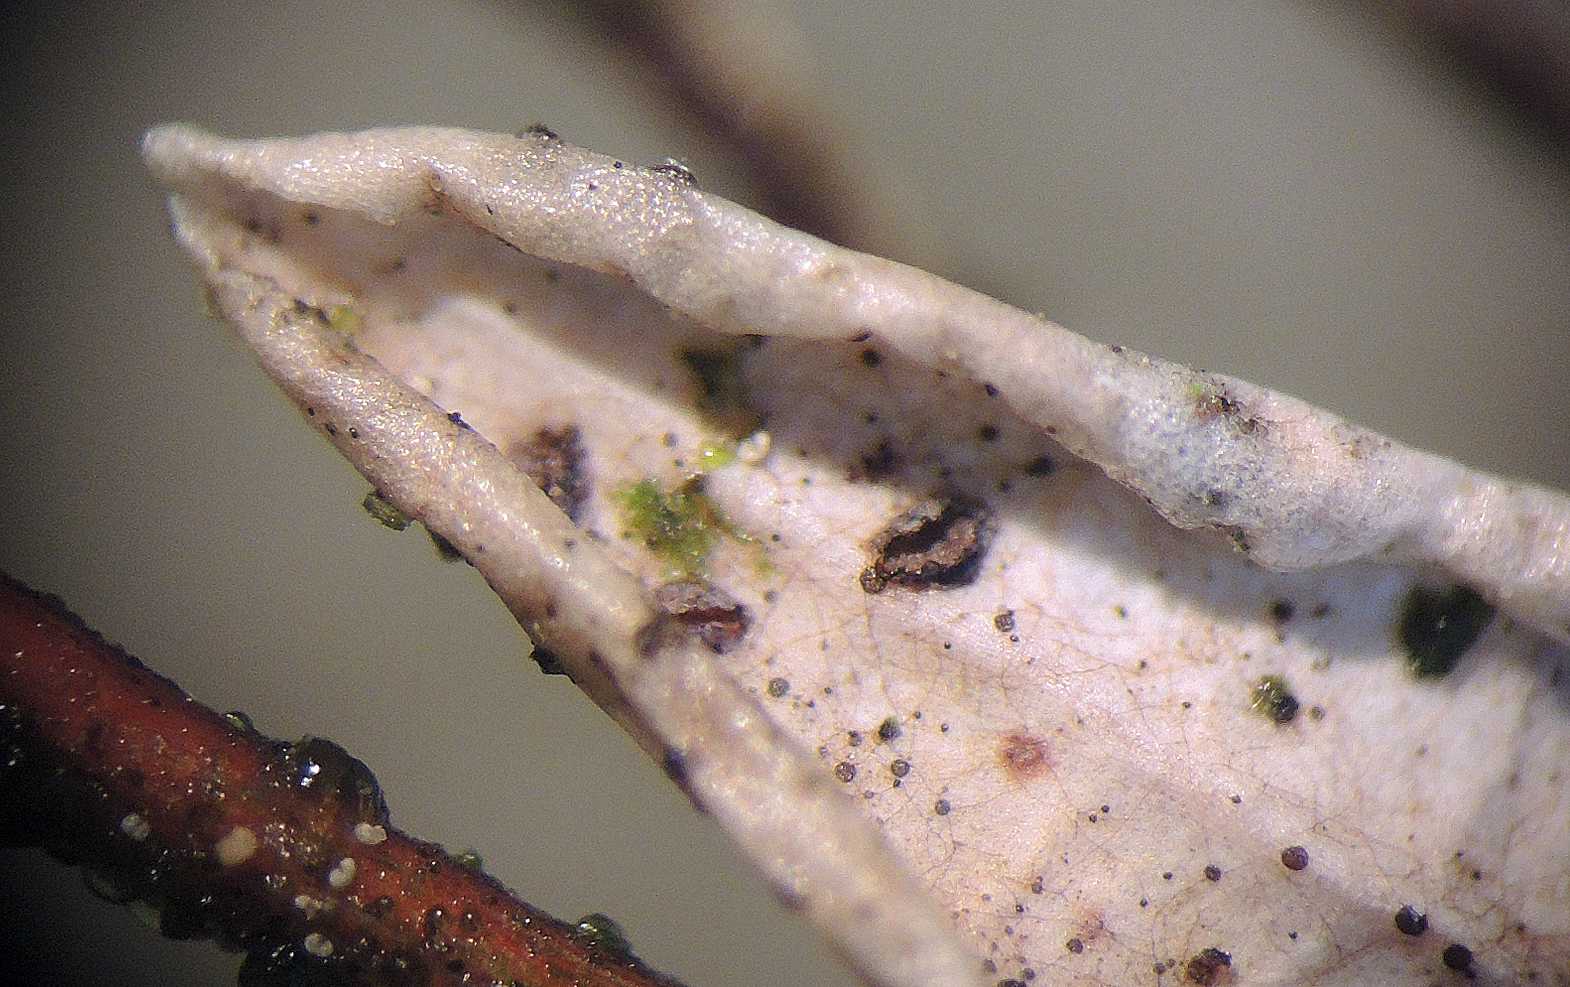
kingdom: Fungi
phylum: Ascomycota
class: Leotiomycetes
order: Rhytismatales
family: Rhytismataceae
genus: Lophodermium
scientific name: Lophodermium oxycocci
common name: tranebær-fureplet
